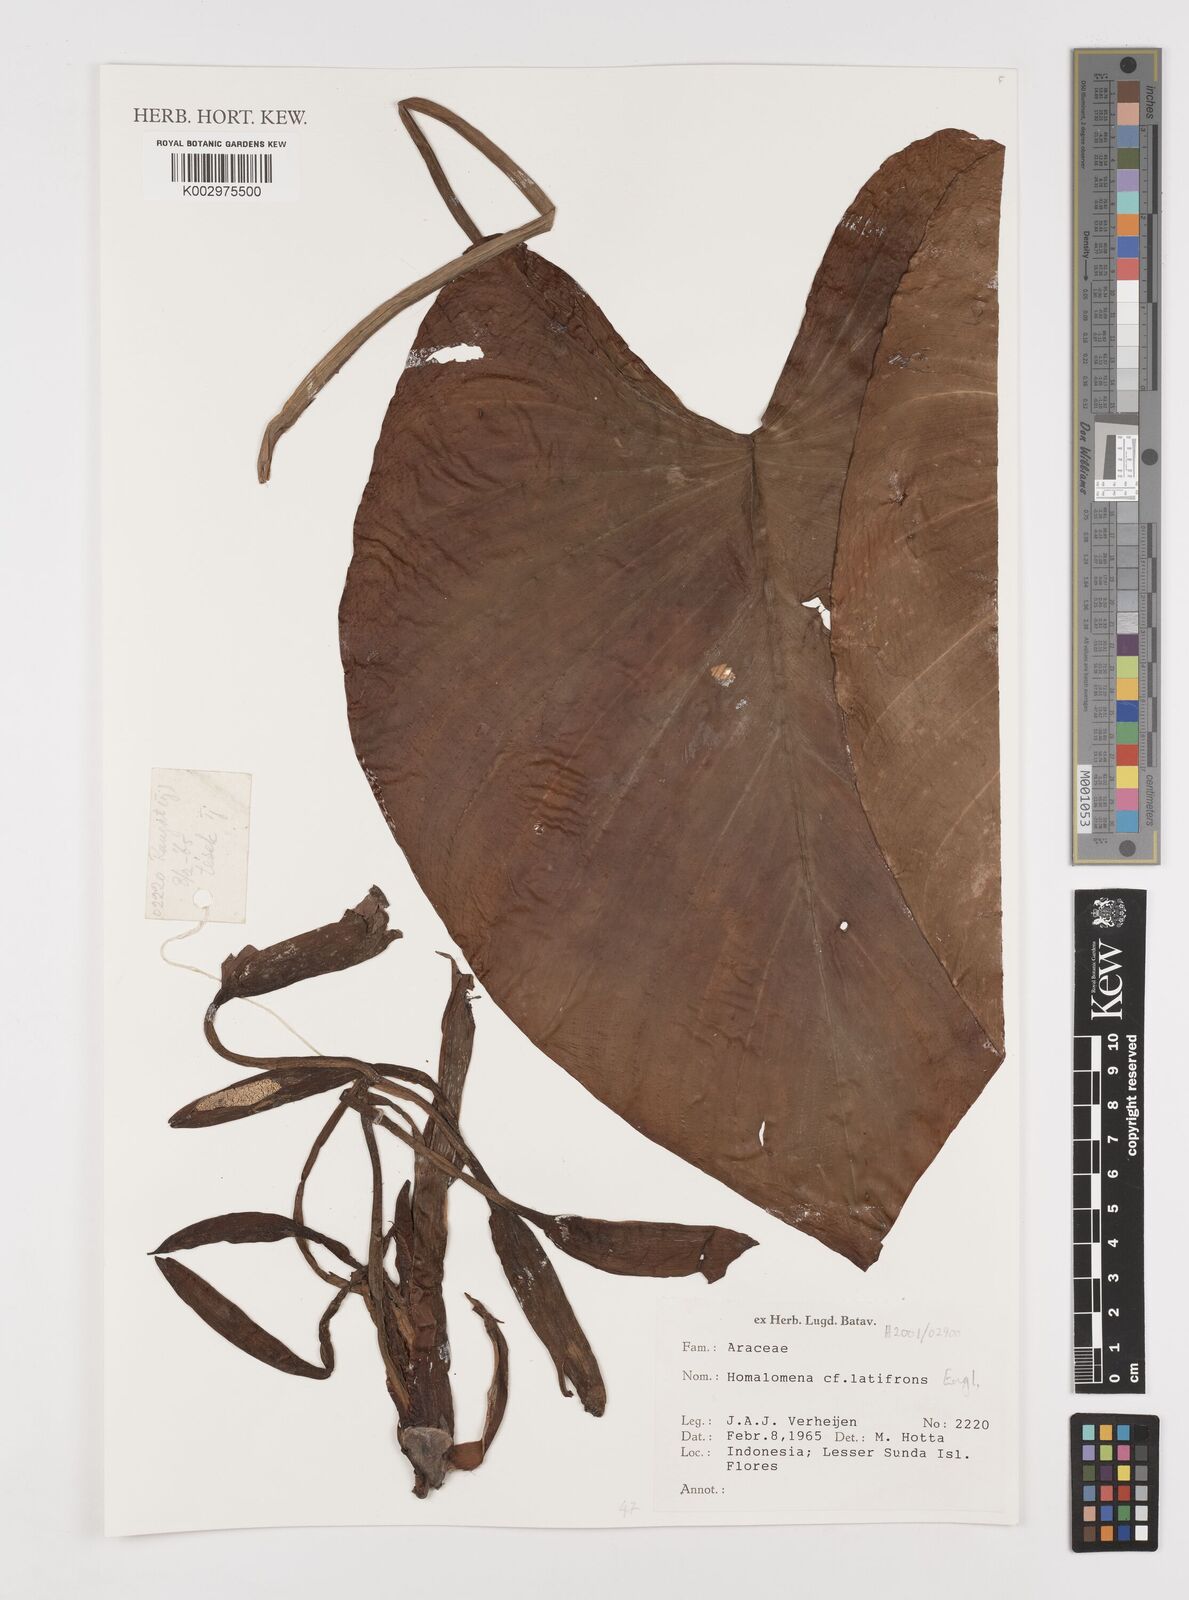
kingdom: Plantae
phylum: Tracheophyta
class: Liliopsida
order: Alismatales
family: Araceae
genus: Homalomena
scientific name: Homalomena pendula
